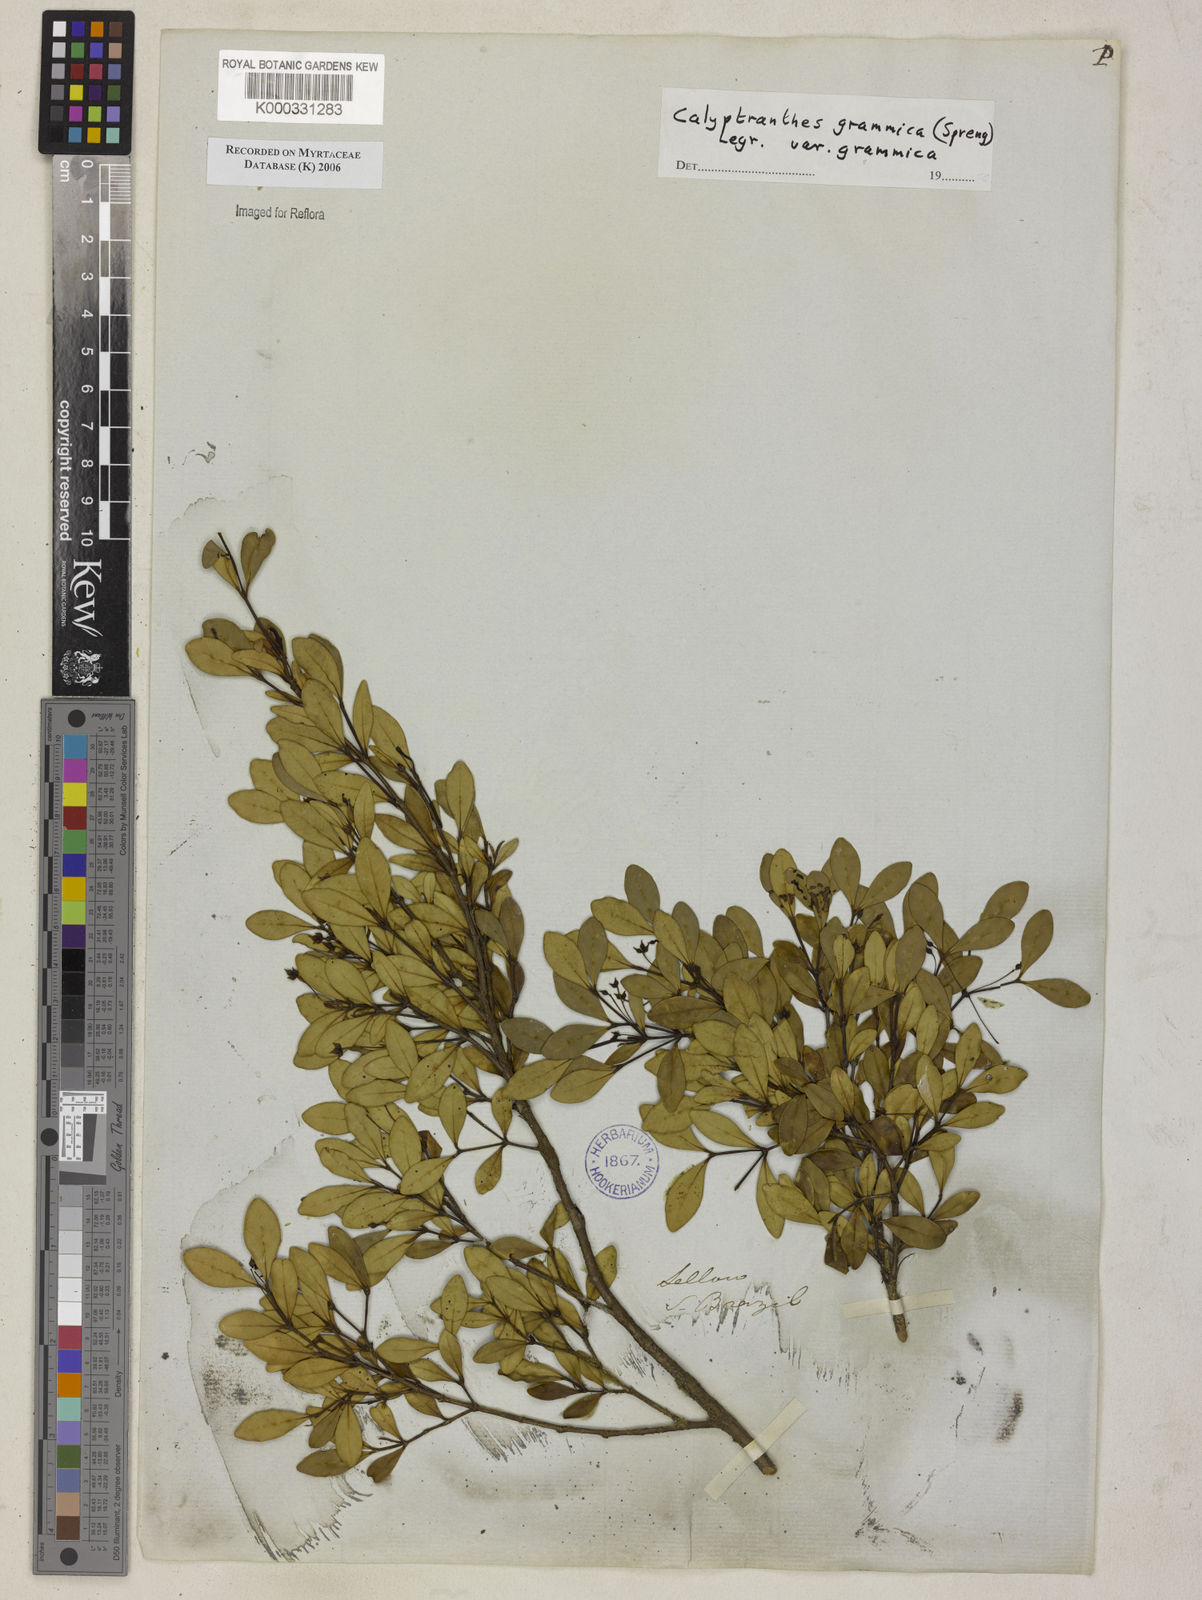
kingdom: Plantae
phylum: Tracheophyta
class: Magnoliopsida
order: Myrtales
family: Myrtaceae
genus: Myrcia
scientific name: Myrcia grammica
